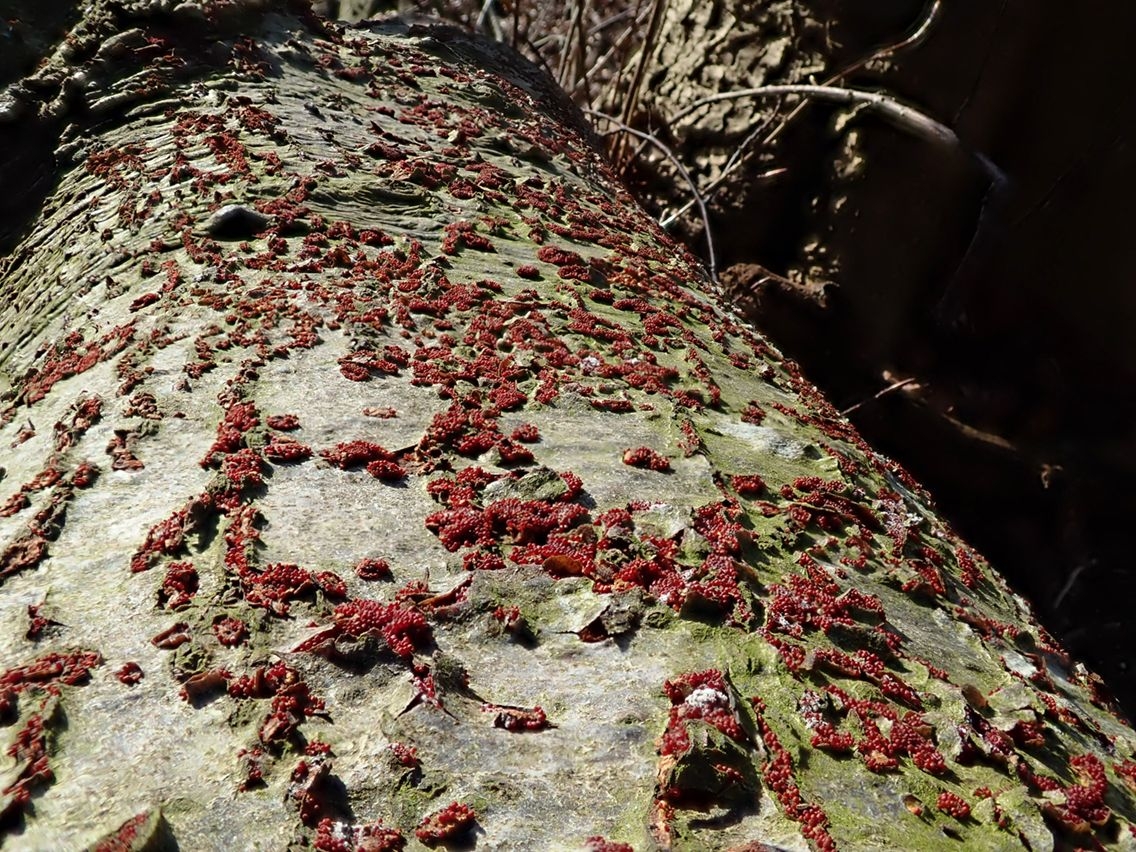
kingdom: Fungi
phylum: Ascomycota
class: Sordariomycetes
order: Hypocreales
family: Nectriaceae
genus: Neonectria
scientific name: Neonectria coccinea
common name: bøgebark-cinnobersvamp
